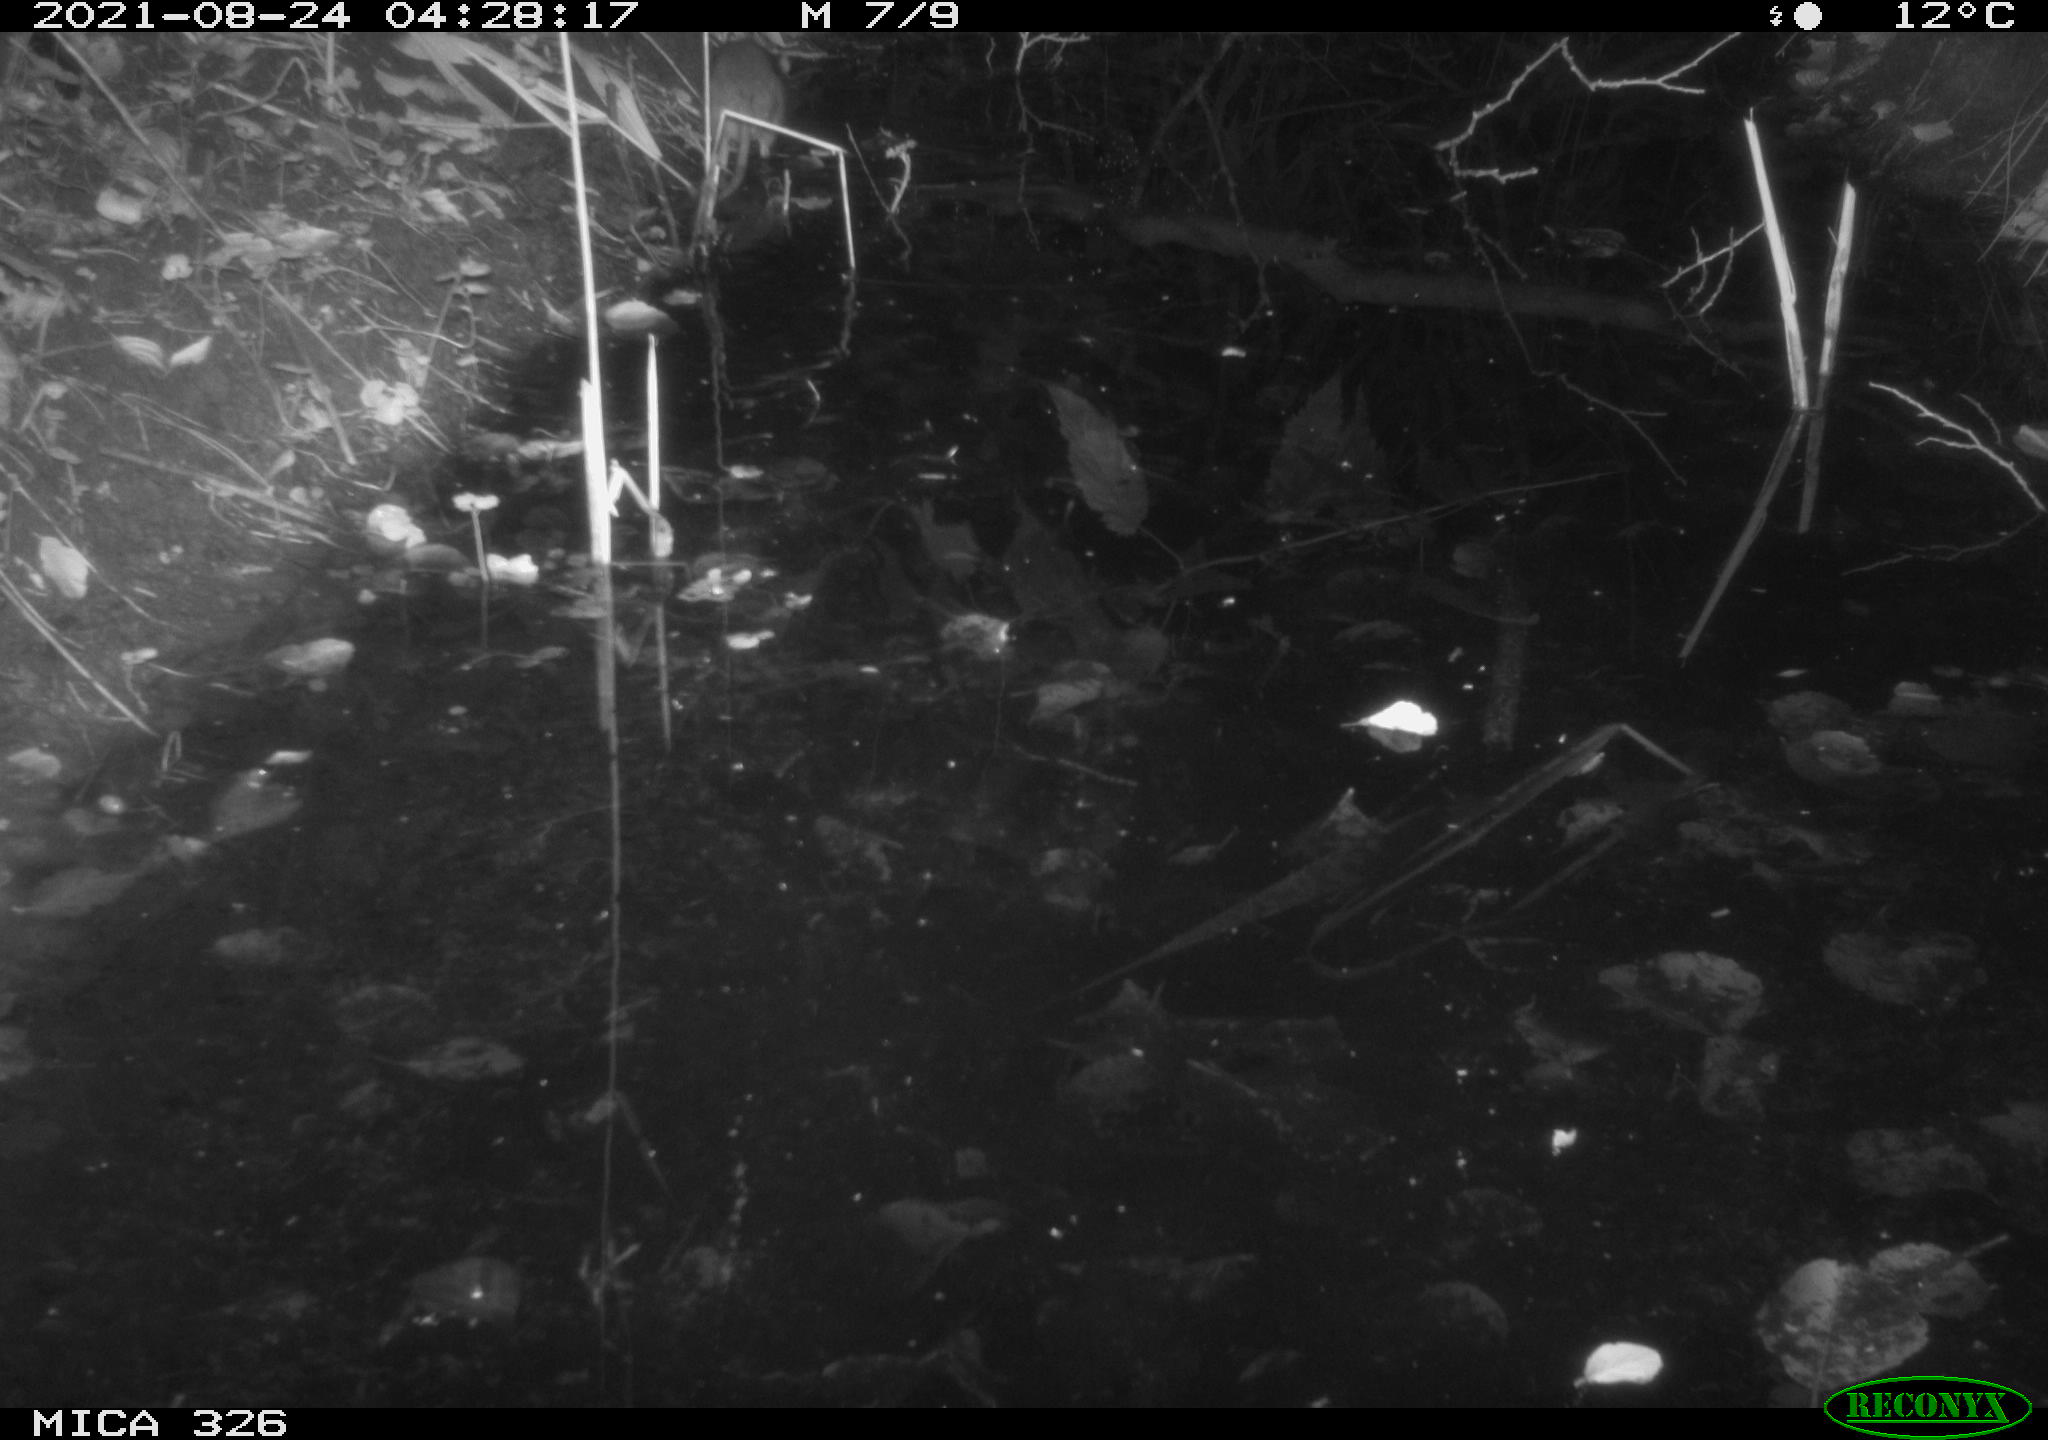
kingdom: Animalia
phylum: Chordata
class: Mammalia
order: Rodentia
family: Muridae
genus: Rattus
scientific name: Rattus norvegicus
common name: Brown rat
